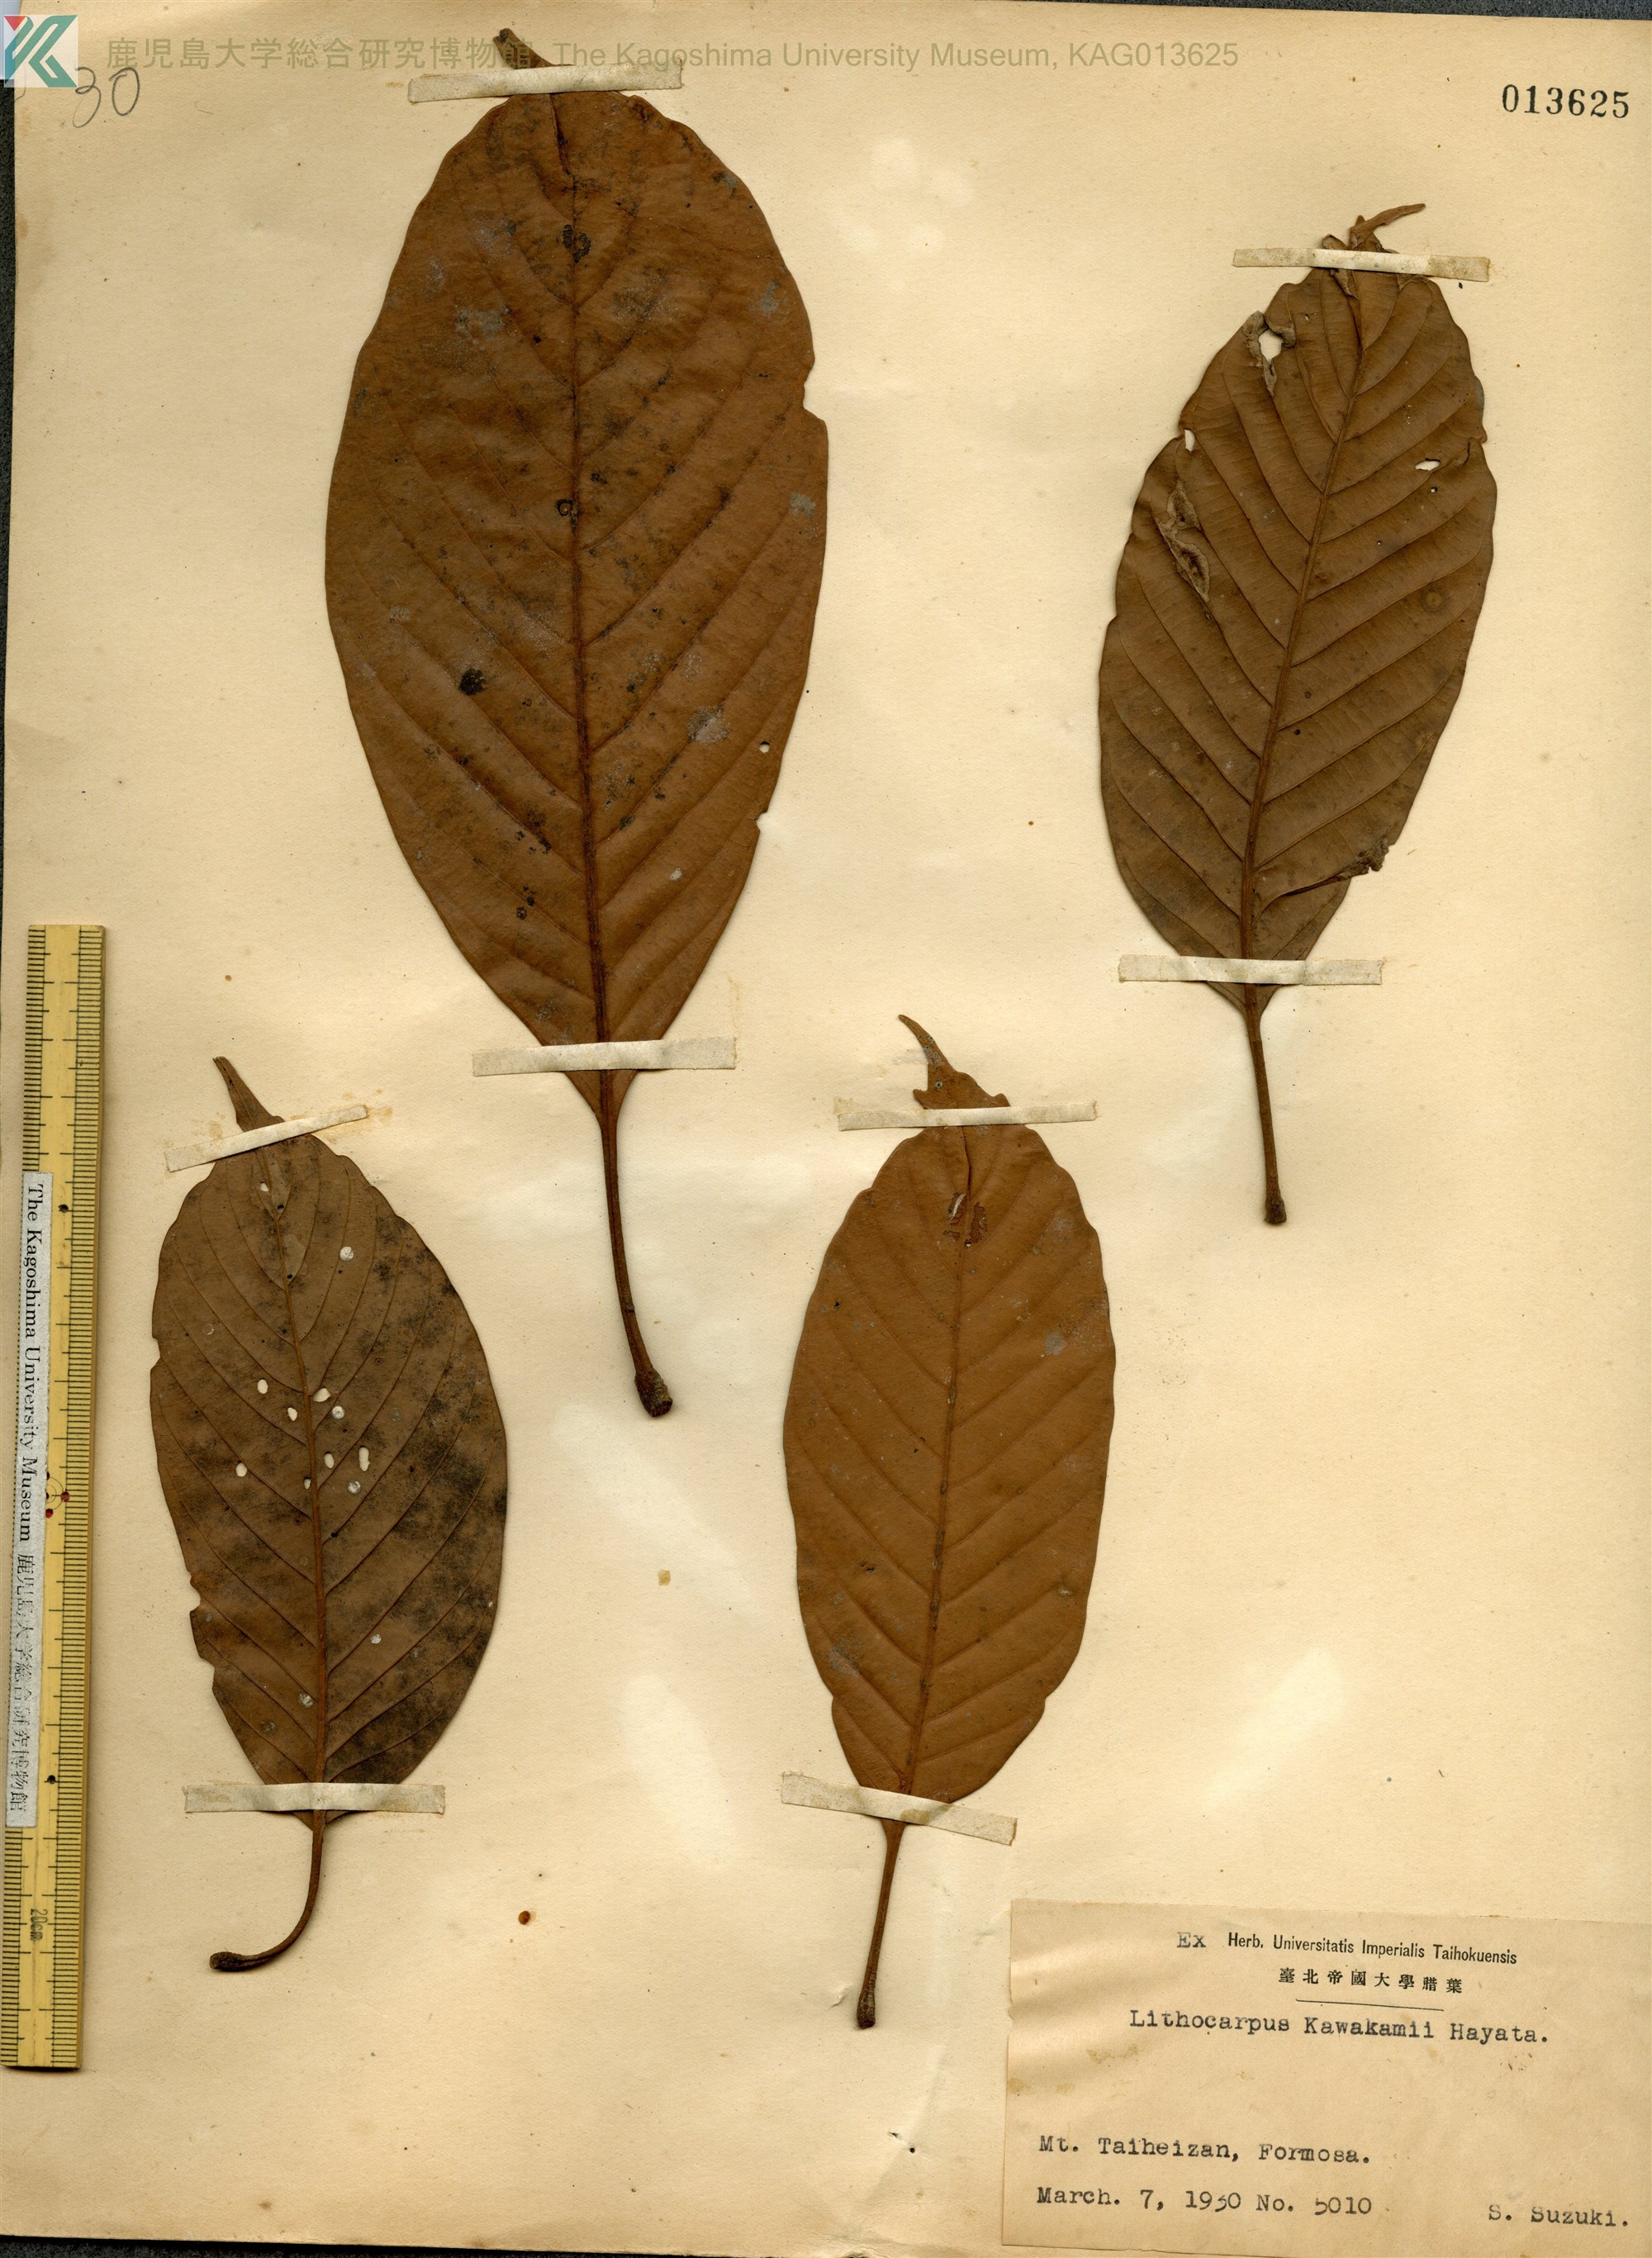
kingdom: Plantae
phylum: Tracheophyta
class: Magnoliopsida
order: Fagales
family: Fagaceae
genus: Lithocarpus
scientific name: Lithocarpus kawakamii
